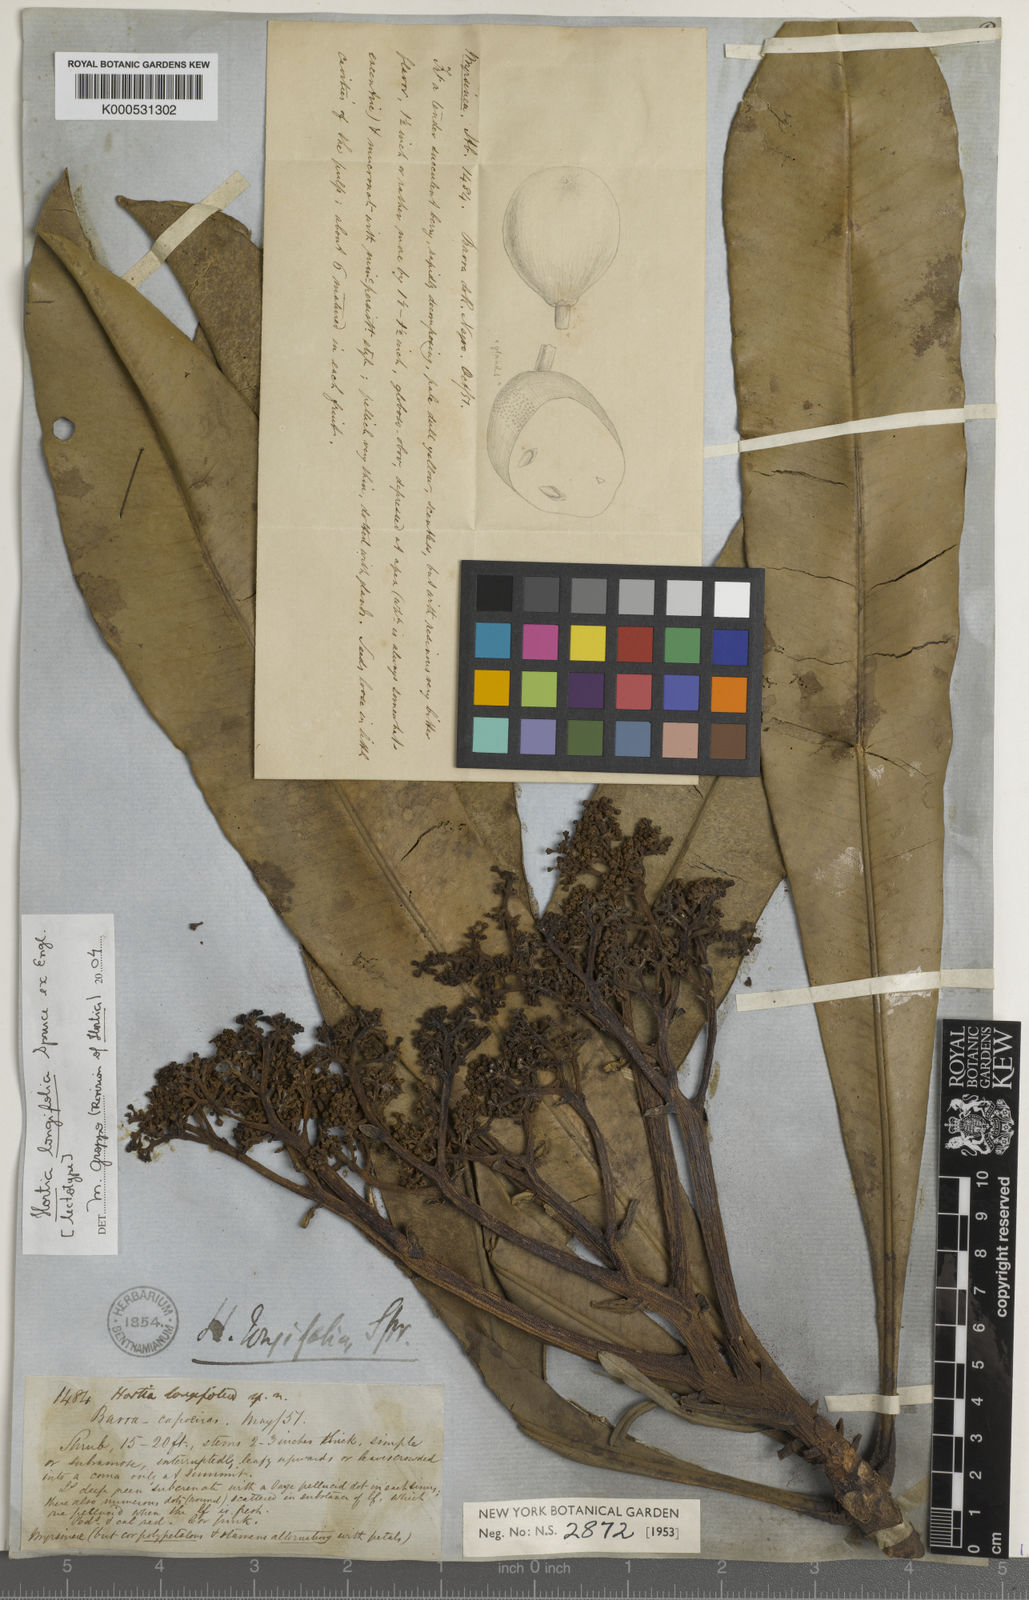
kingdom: Plantae
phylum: Tracheophyta
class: Magnoliopsida
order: Sapindales
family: Rutaceae
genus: Hortia
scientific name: Hortia longifolia
